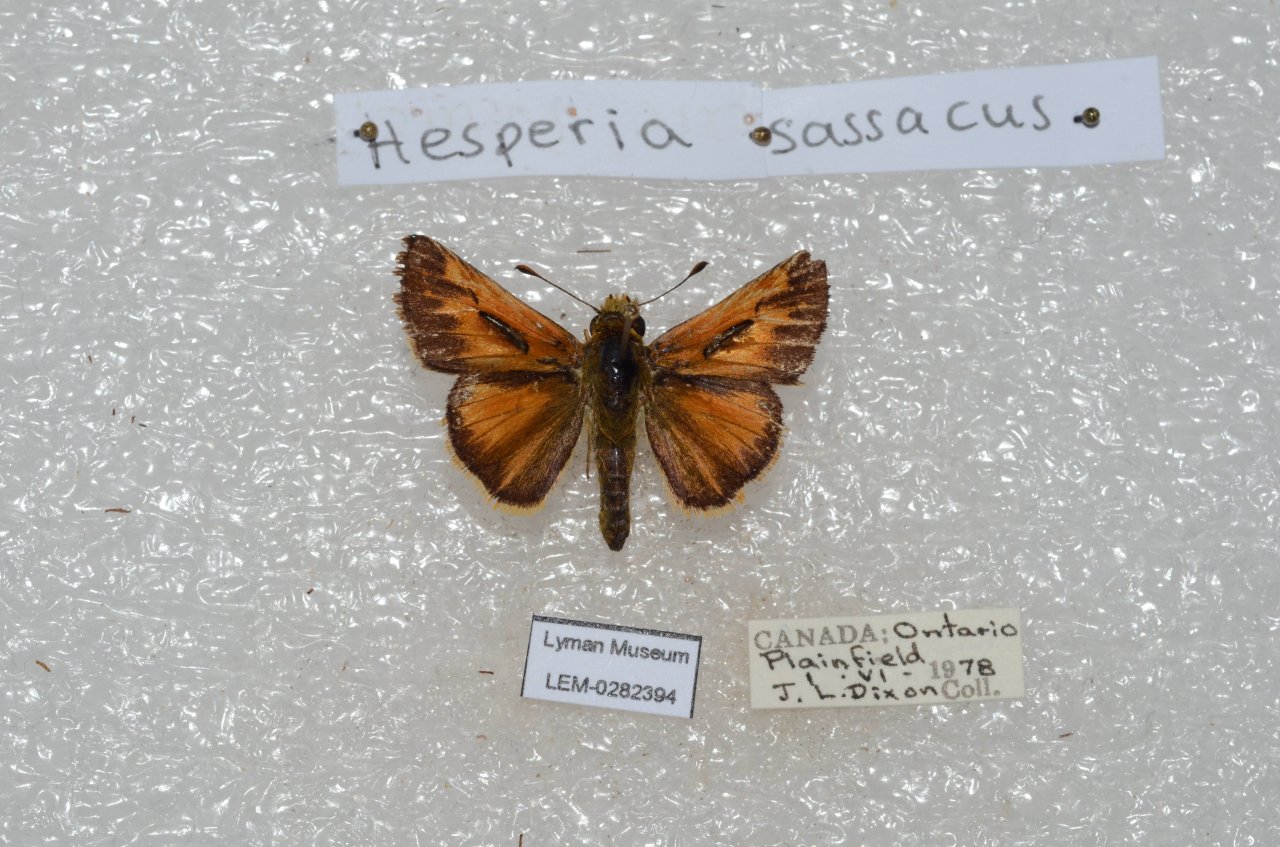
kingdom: Animalia
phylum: Arthropoda
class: Insecta
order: Lepidoptera
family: Hesperiidae
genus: Hesperia
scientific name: Hesperia sassacus
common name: Sassacus Skipper
